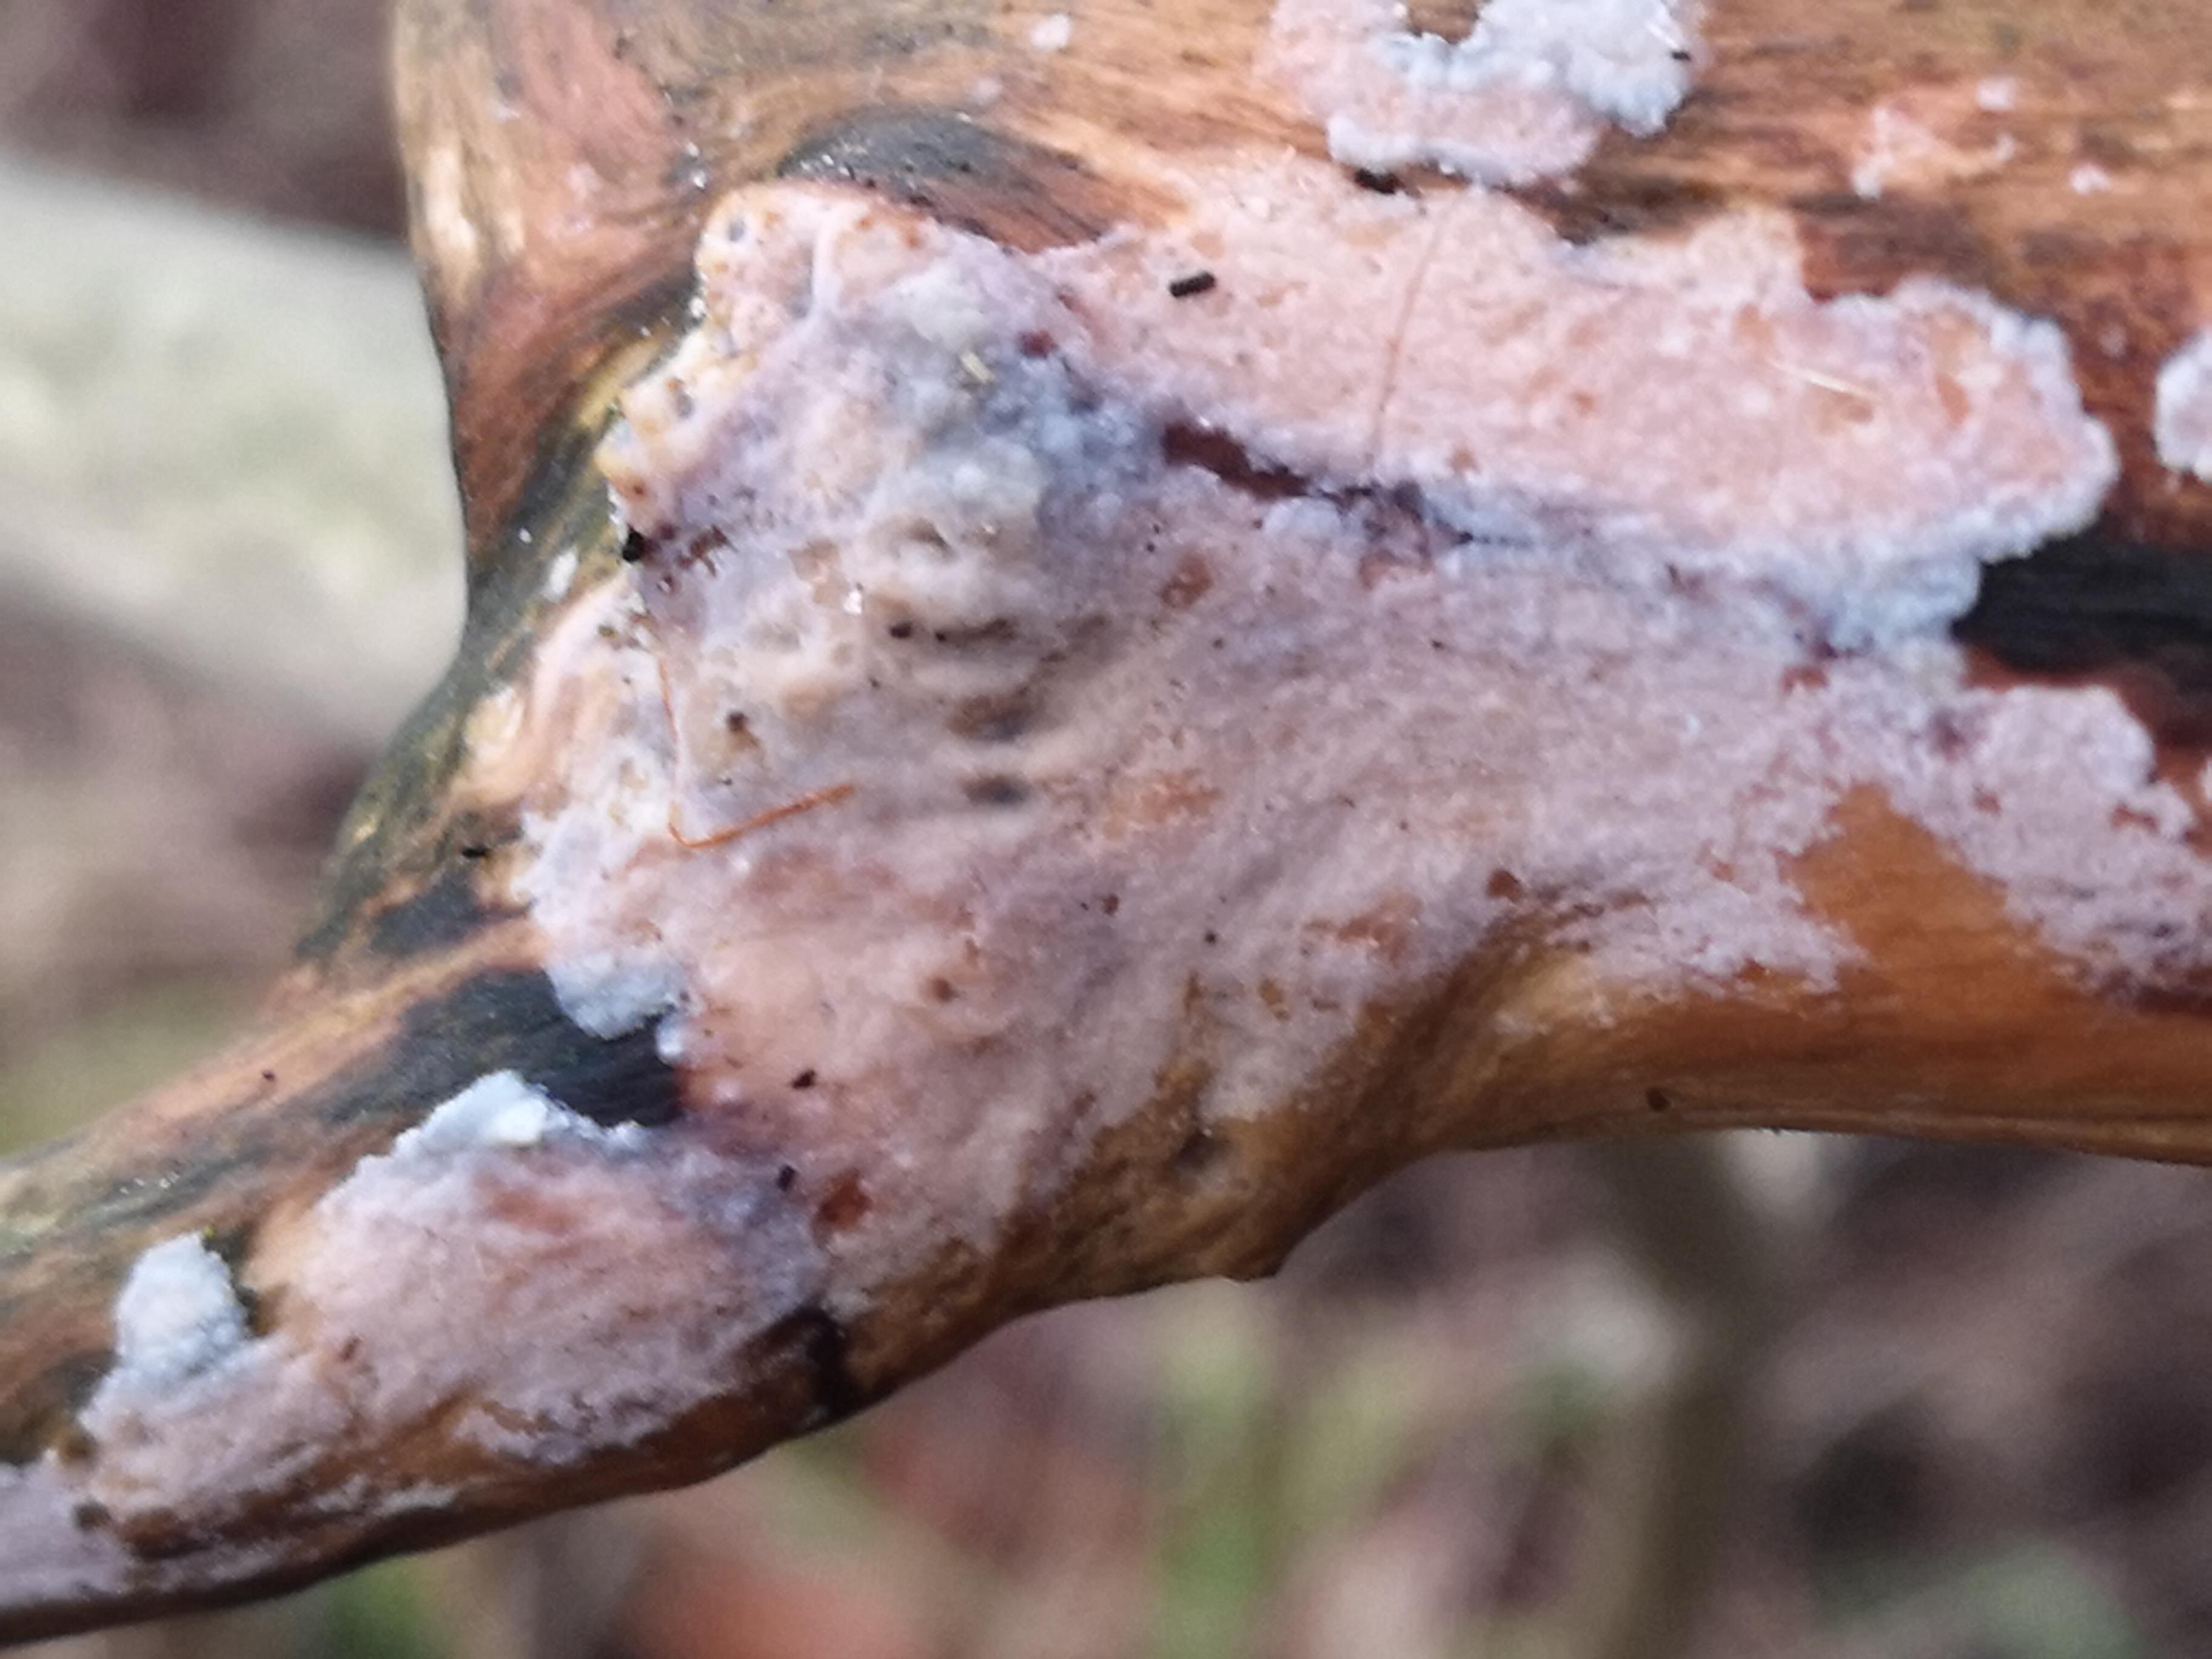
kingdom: Fungi
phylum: Basidiomycota
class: Agaricomycetes
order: Corticiales
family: Corticiaceae
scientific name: Corticiaceae
